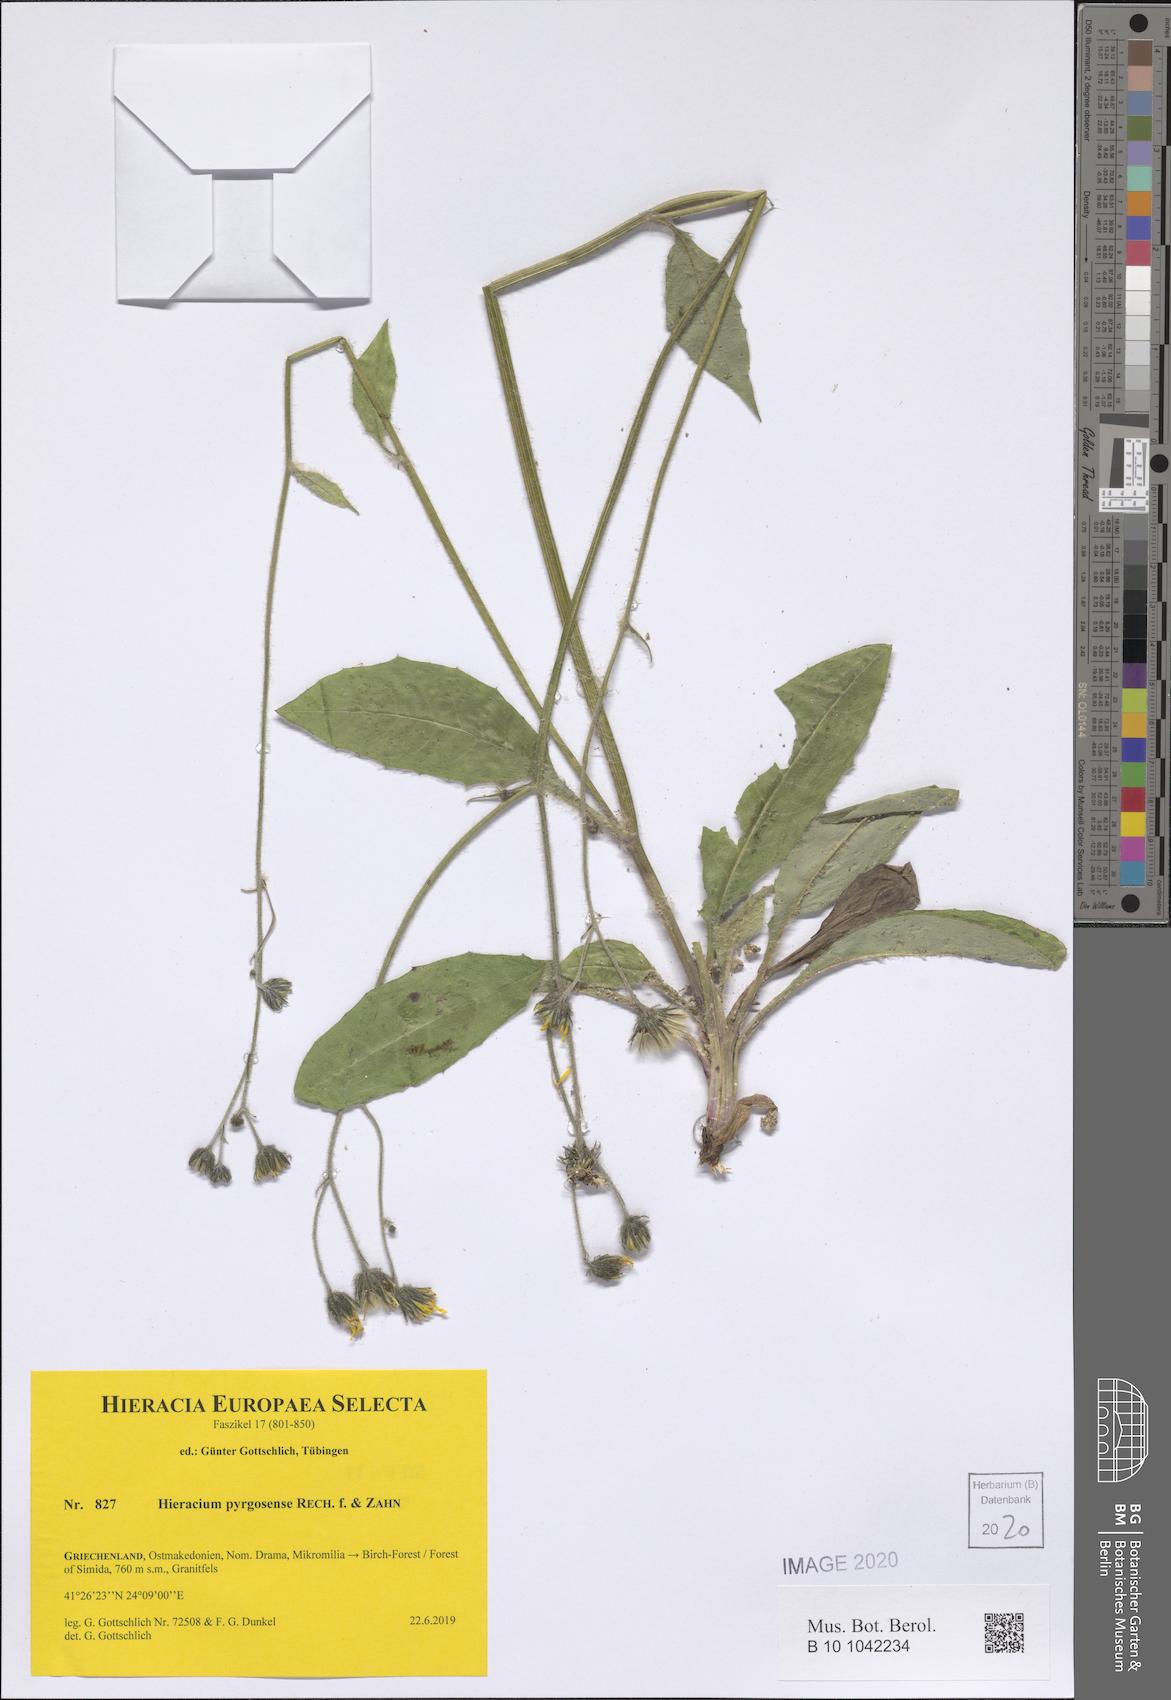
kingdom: Plantae
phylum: Tracheophyta
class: Magnoliopsida
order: Asterales
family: Asteraceae
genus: Hieracium
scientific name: Hieracium pyrgosense
